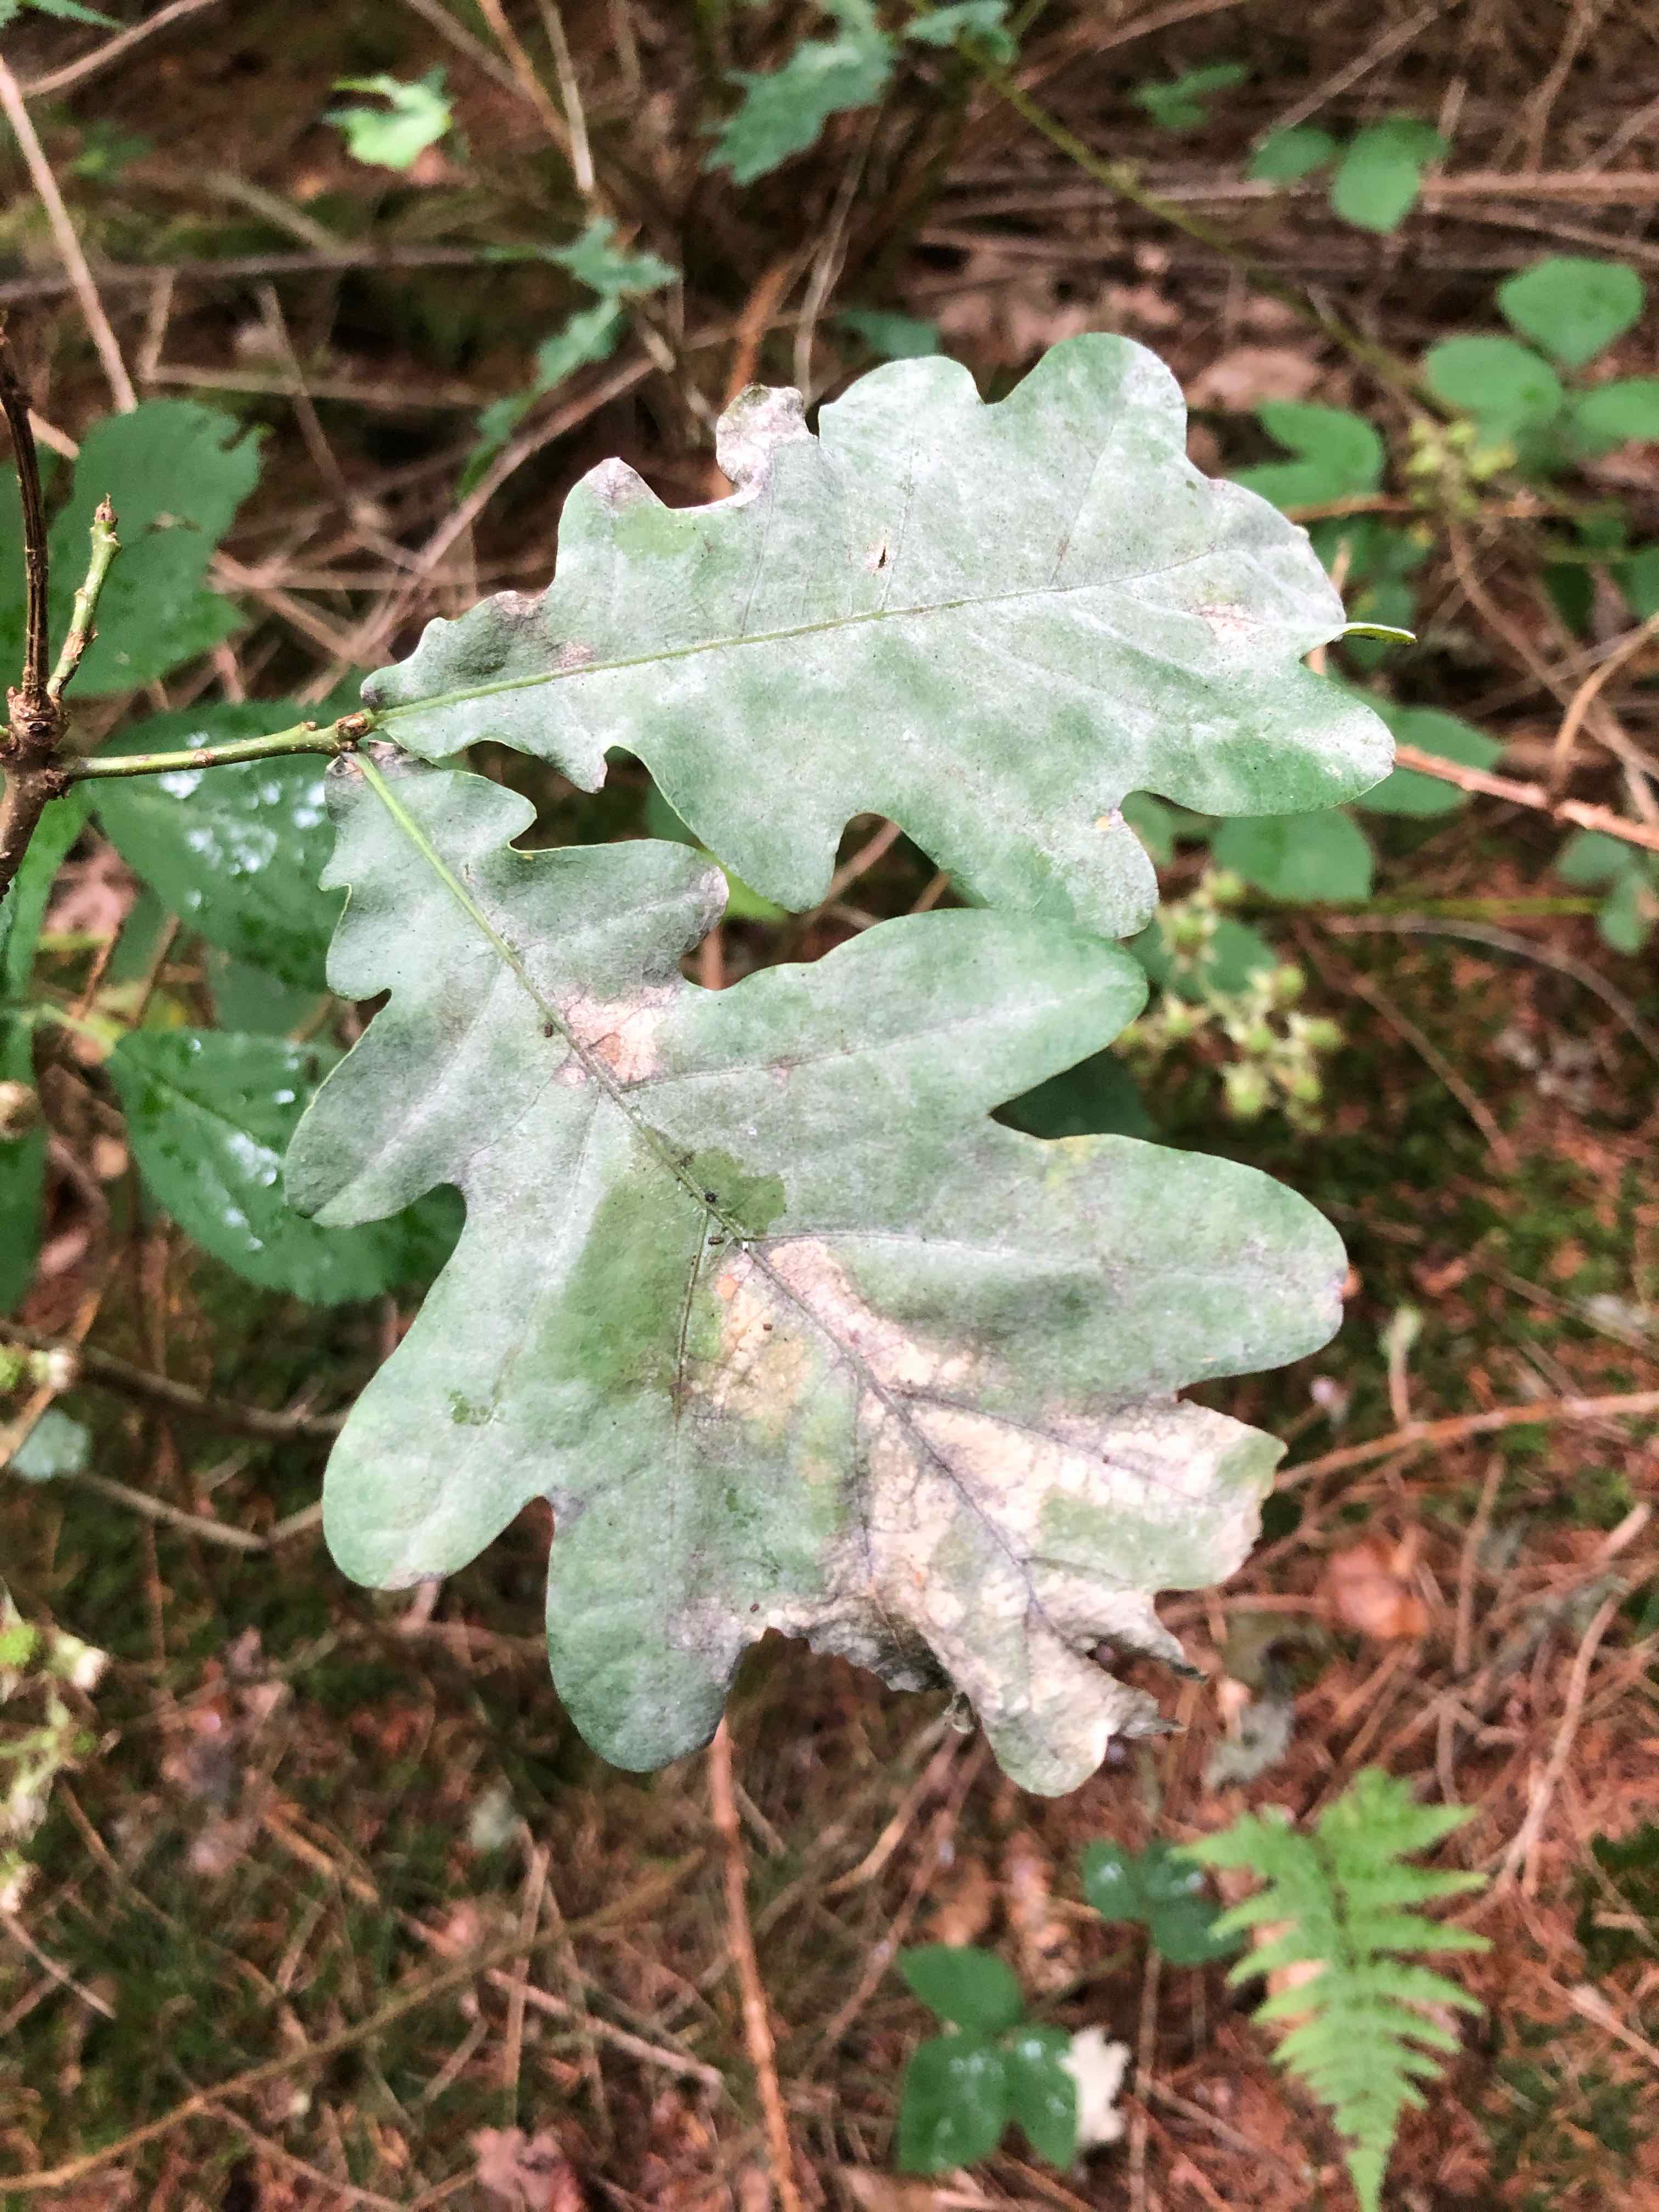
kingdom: Fungi
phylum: Ascomycota
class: Leotiomycetes
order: Helotiales
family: Erysiphaceae
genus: Erysiphe
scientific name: Erysiphe alphitoides
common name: ege-meldug
